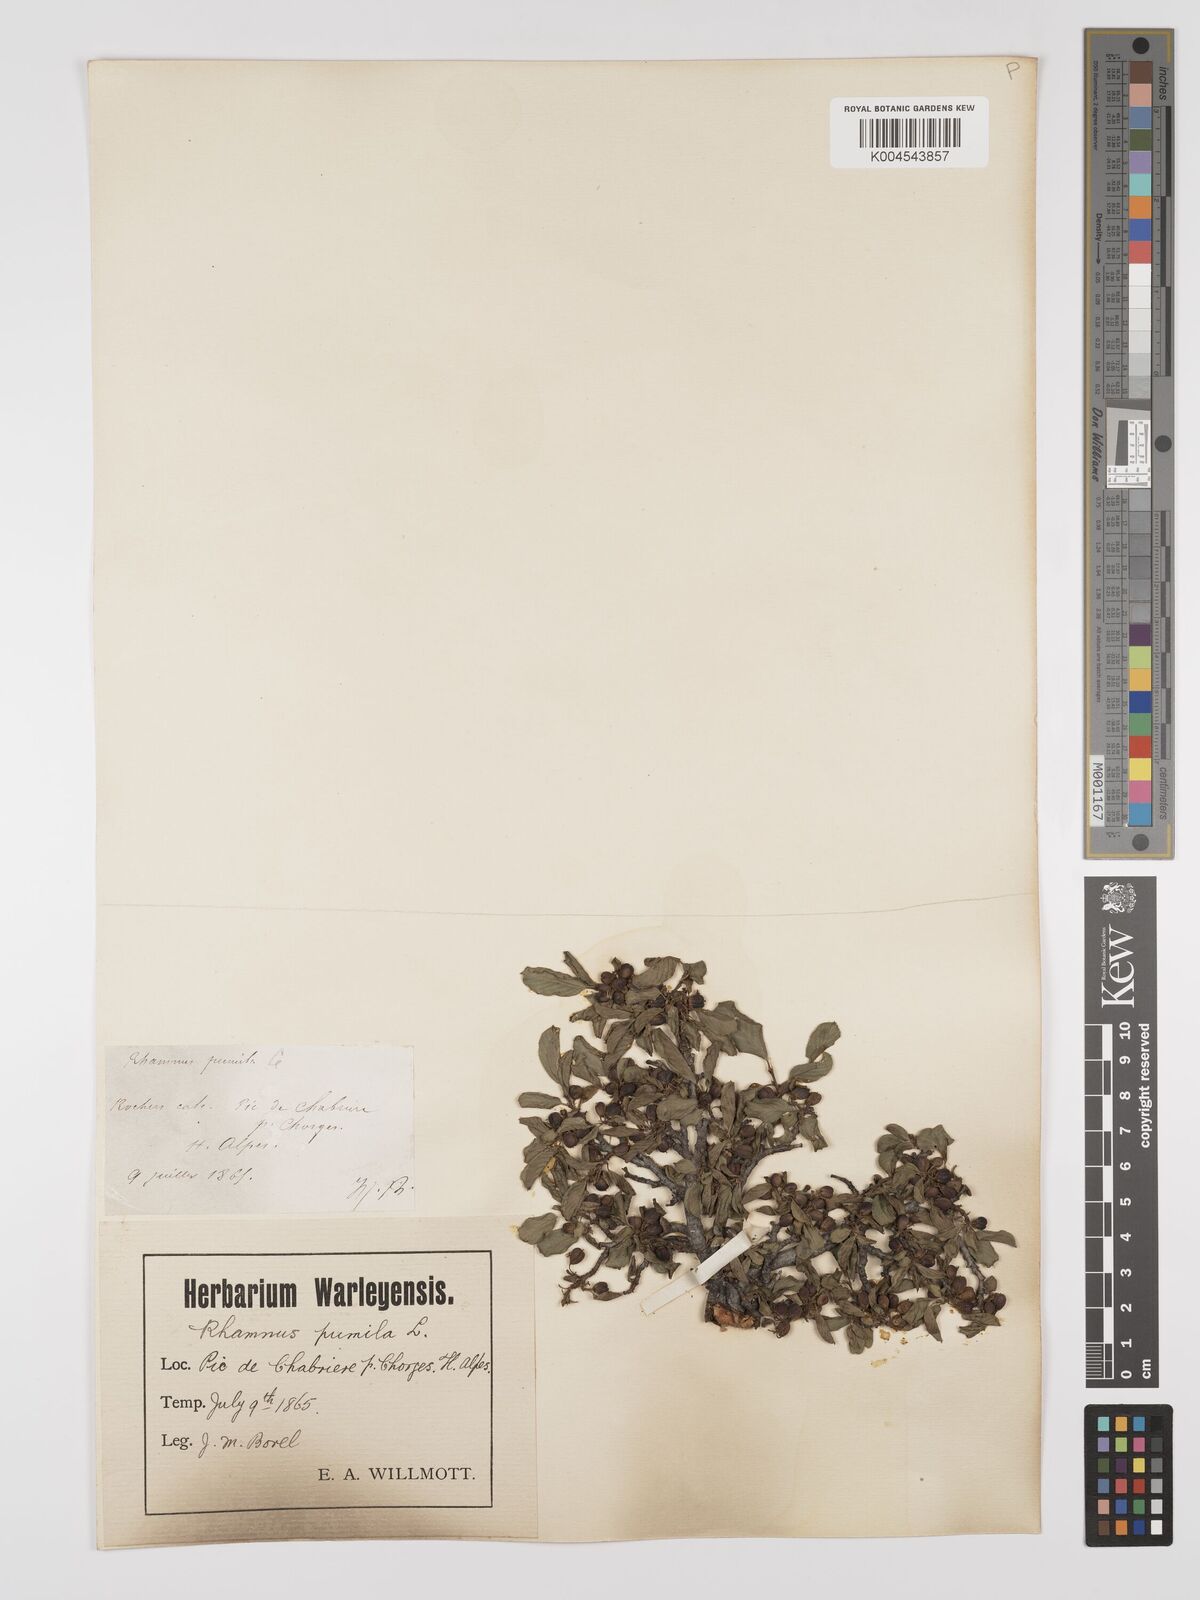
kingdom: Plantae
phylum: Tracheophyta
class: Magnoliopsida
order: Rosales
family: Rhamnaceae
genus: Rhamnus
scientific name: Rhamnus
